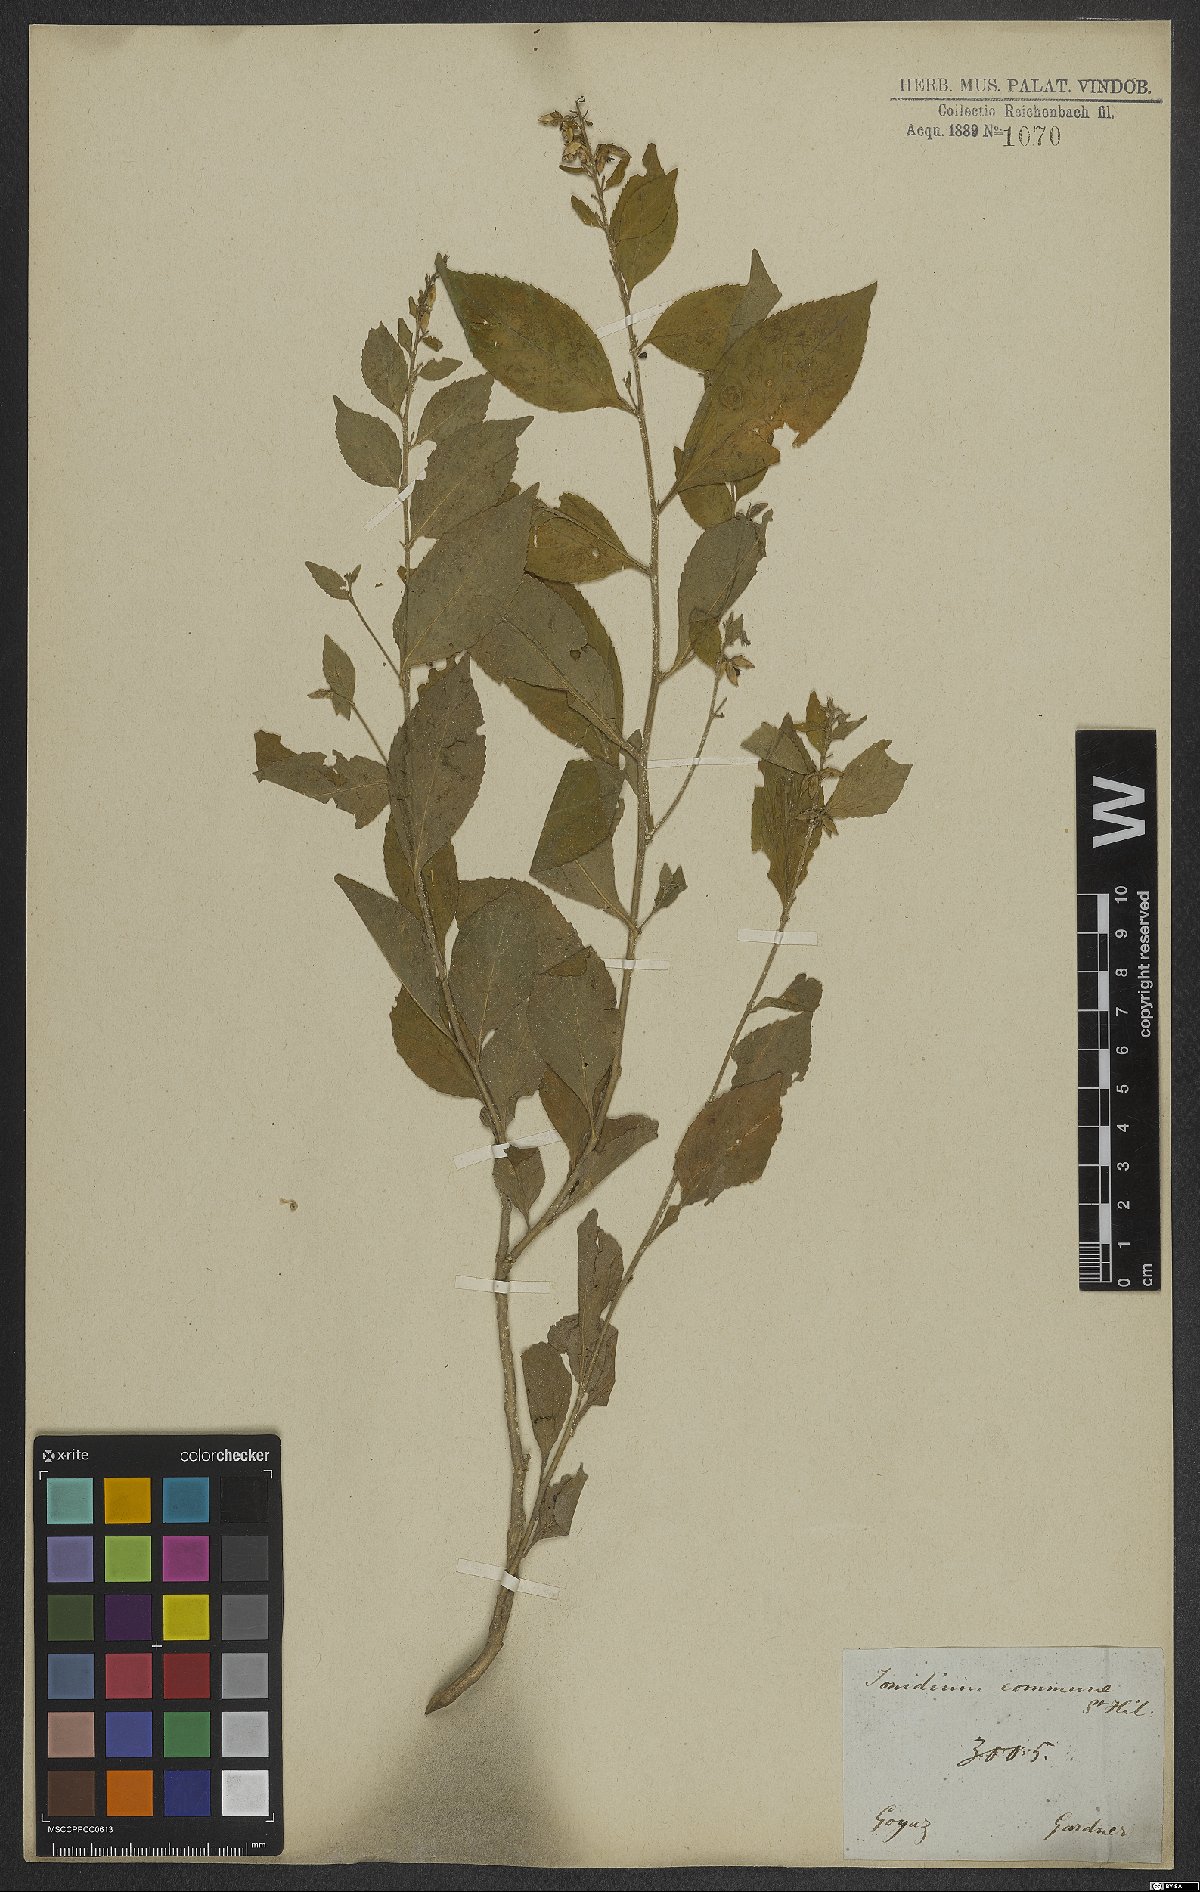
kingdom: Plantae
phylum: Tracheophyta
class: Magnoliopsida
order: Malpighiales
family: Violaceae
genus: Pombalia
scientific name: Pombalia communis
